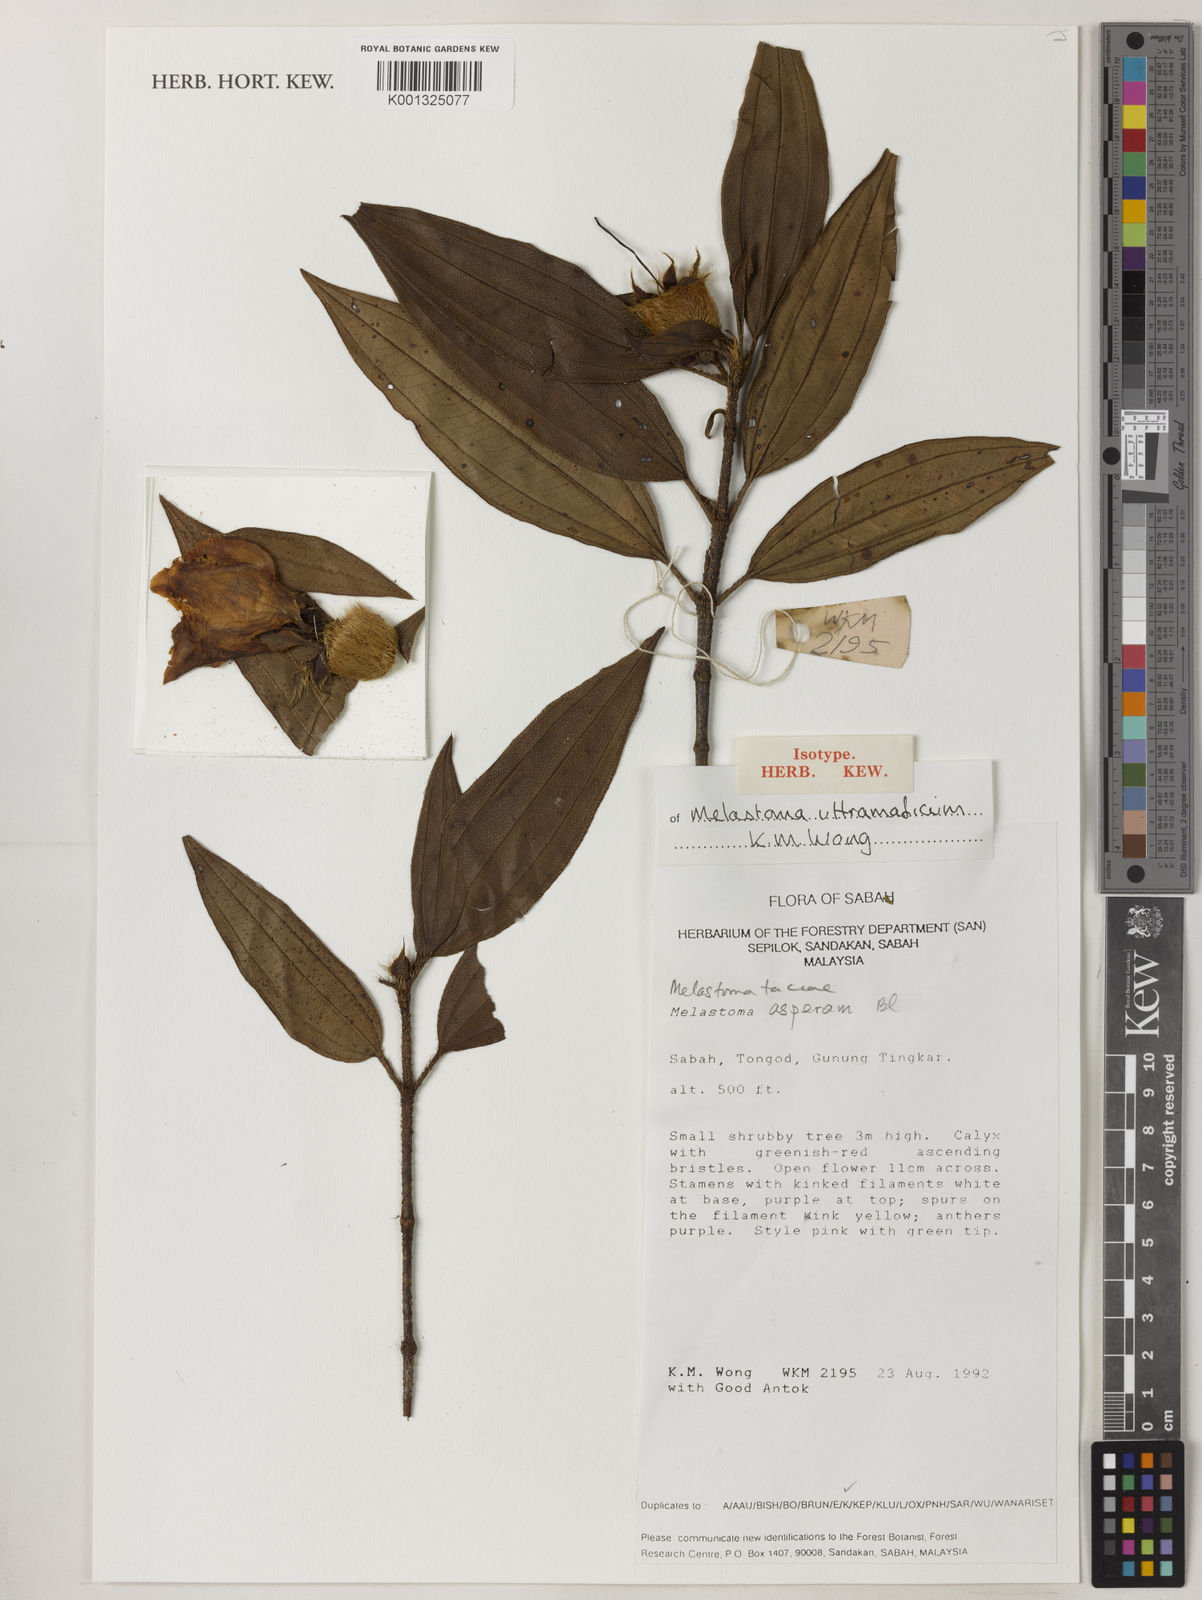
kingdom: Plantae
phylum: Tracheophyta
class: Magnoliopsida
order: Myrtales
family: Melastomataceae
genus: Melastoma
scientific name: Melastoma ultramaficum
